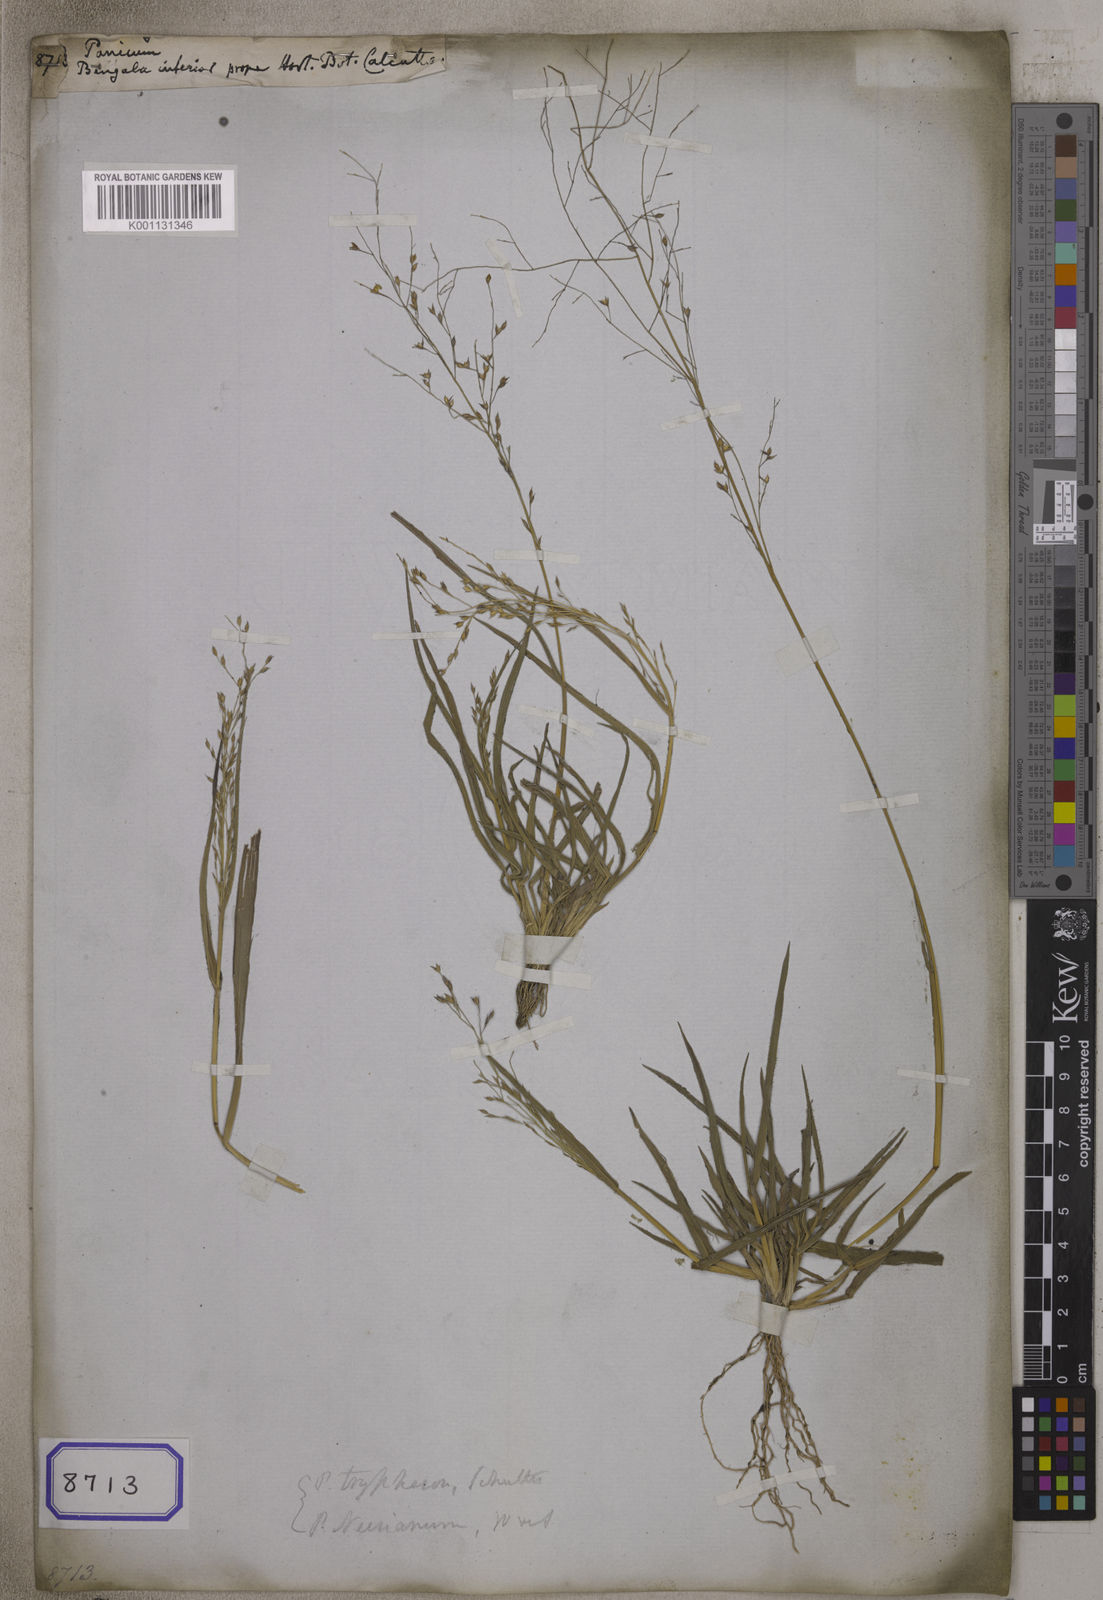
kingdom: Plantae
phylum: Tracheophyta
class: Liliopsida
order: Poales
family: Poaceae
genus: Panicum
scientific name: Panicum
